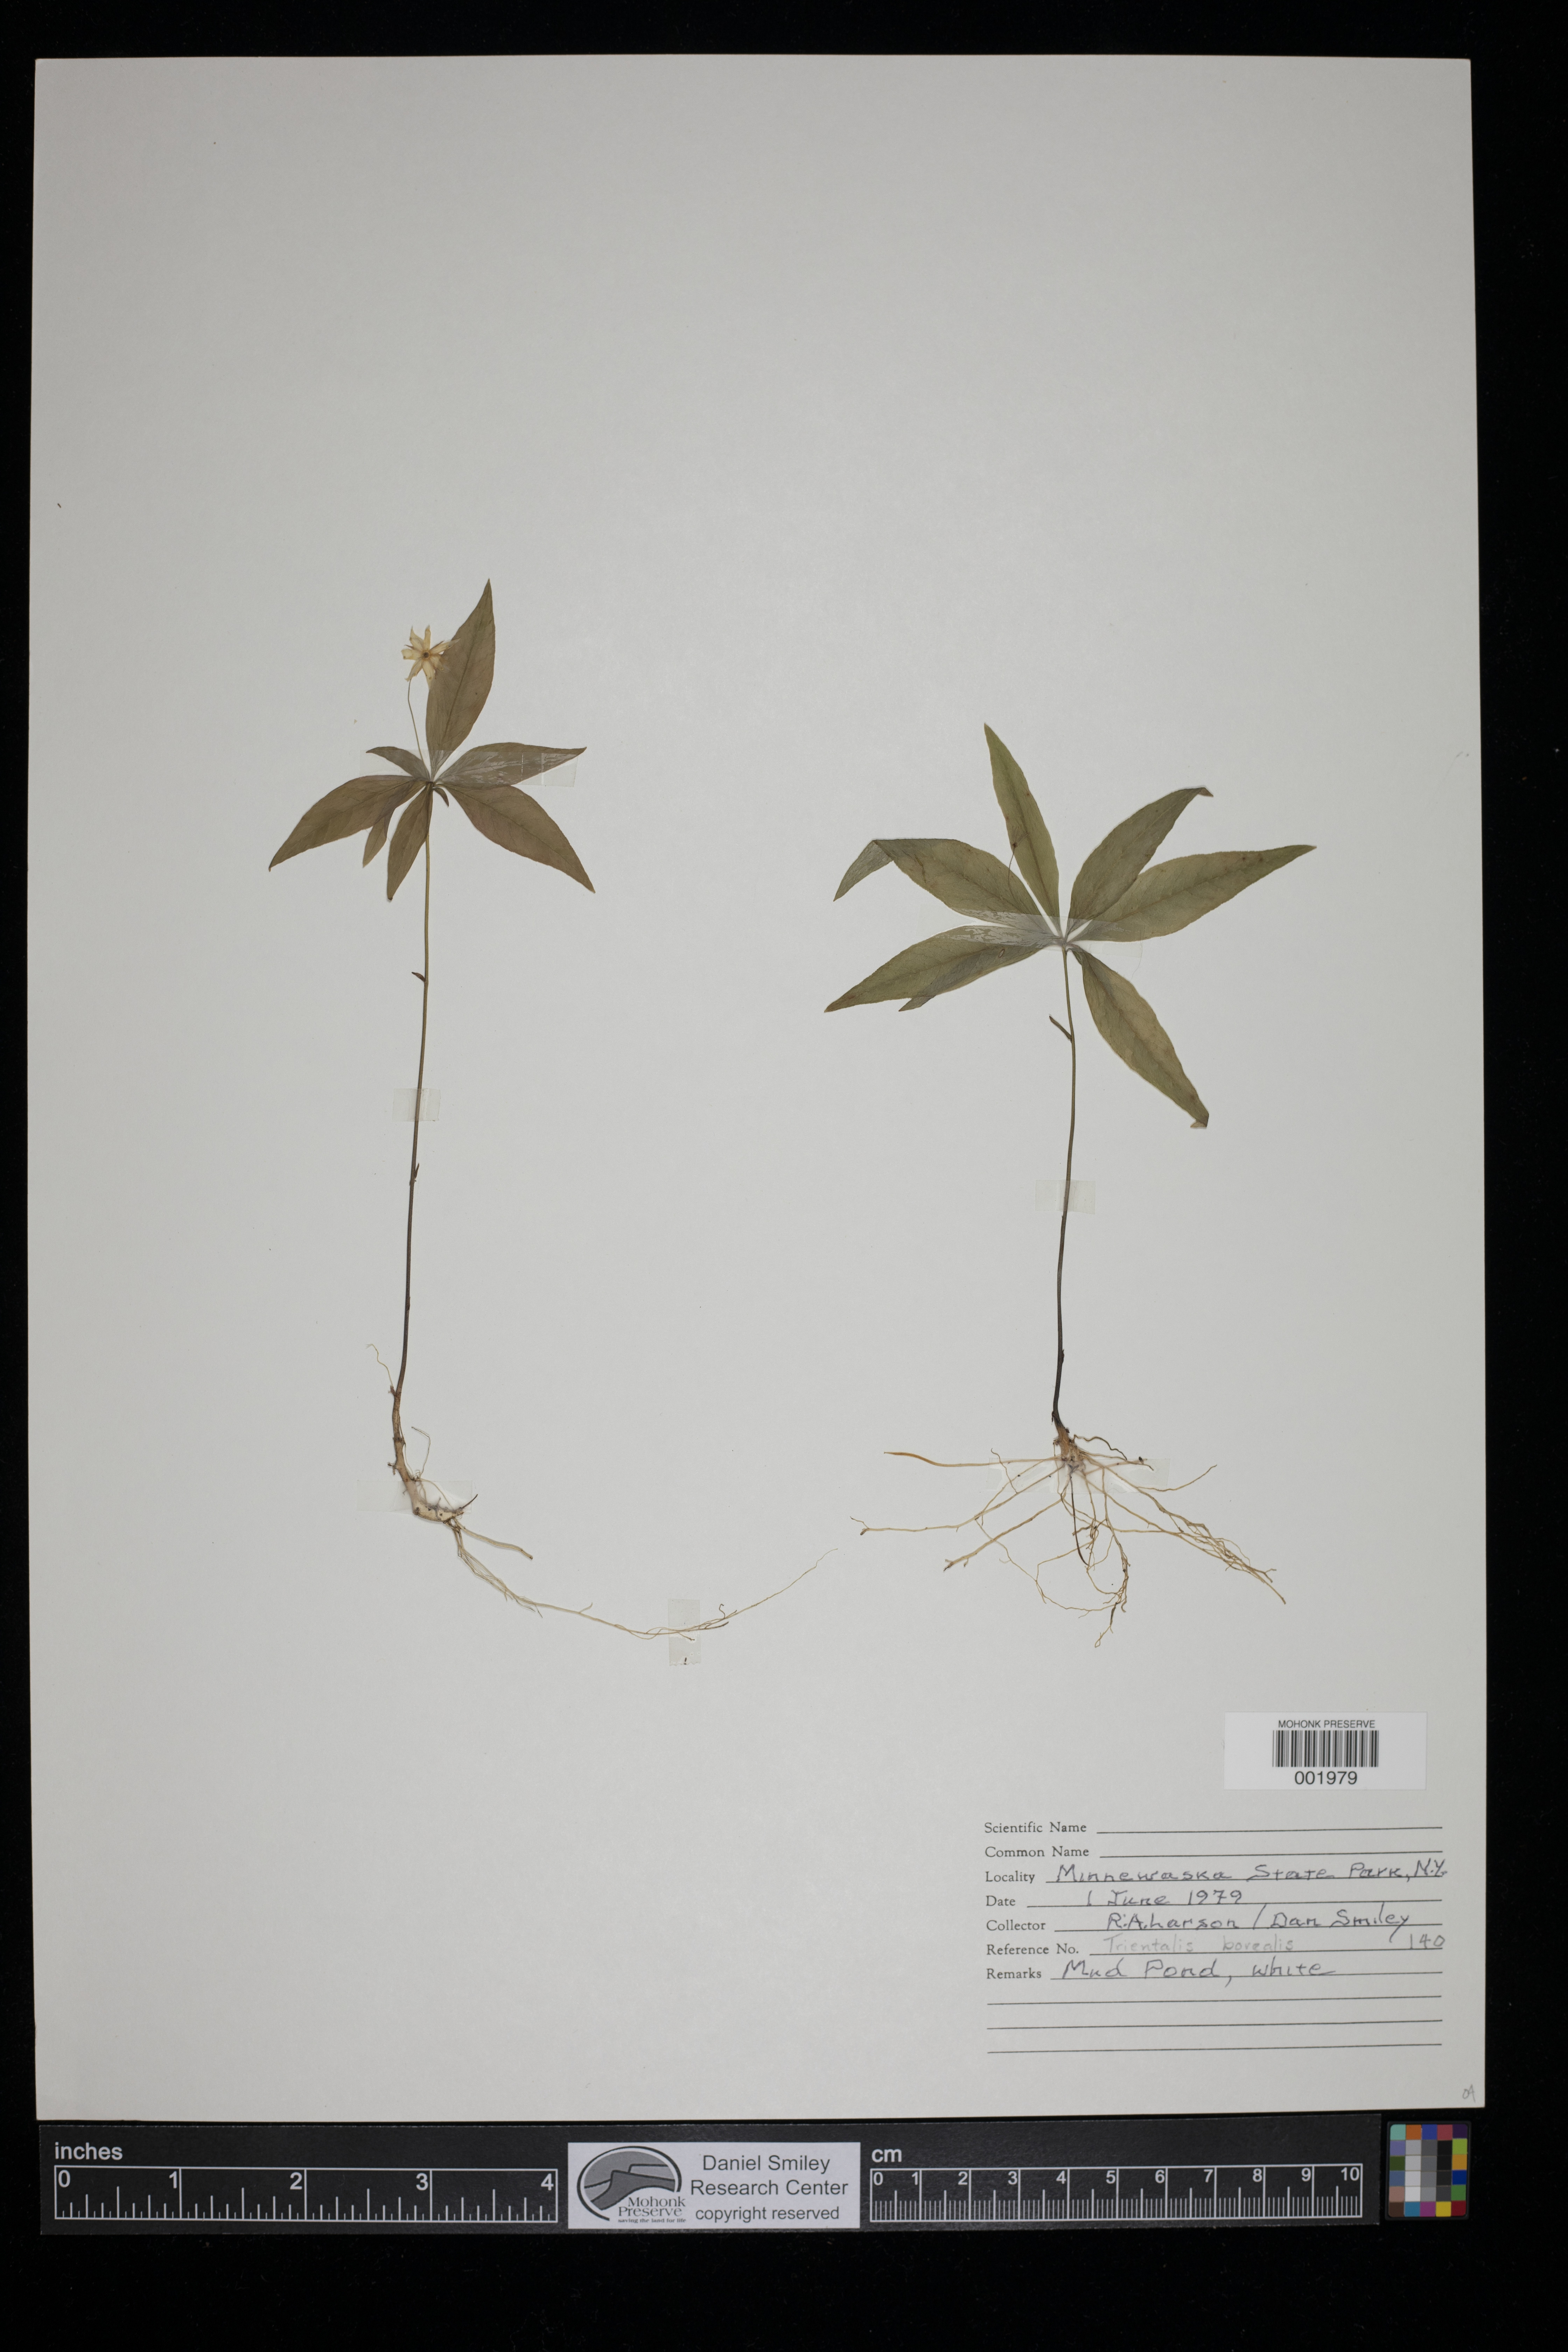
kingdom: Plantae
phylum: Tracheophyta
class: Magnoliopsida
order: Ericales
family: Primulaceae
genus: Lysimachia
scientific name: Lysimachia borealis
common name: American starflower
